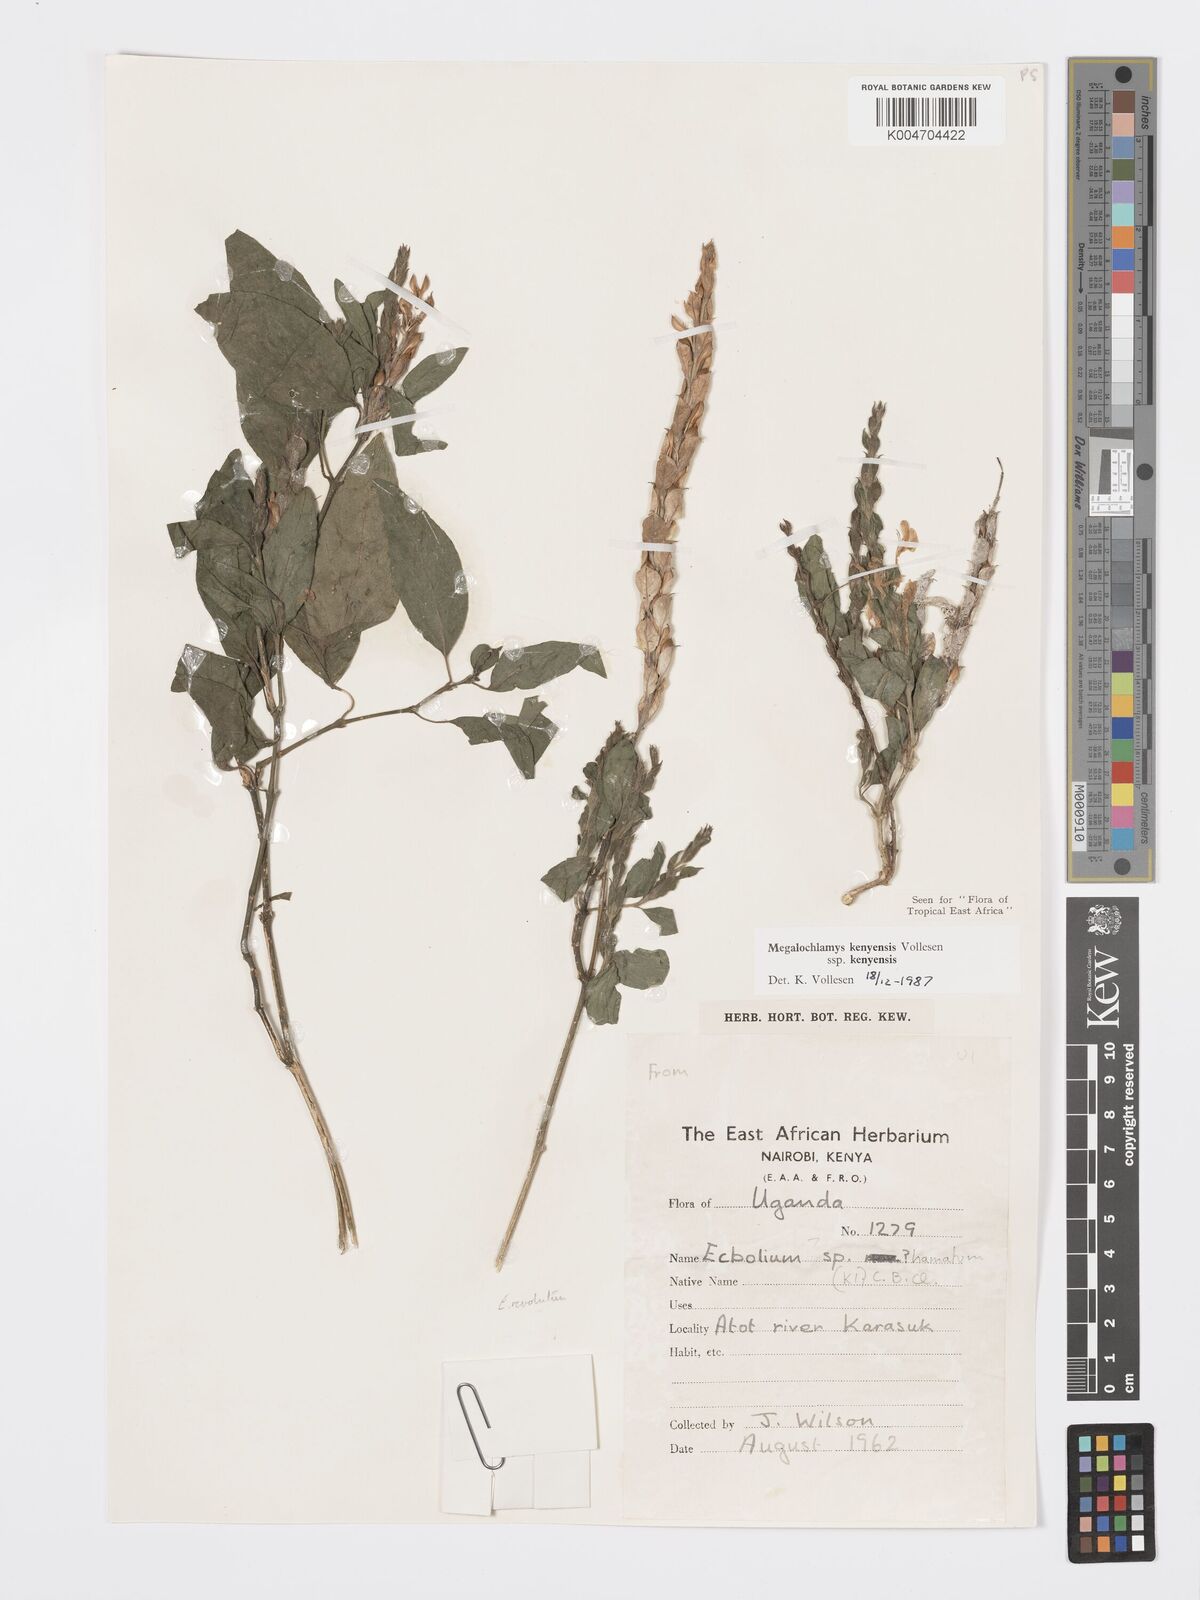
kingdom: Plantae
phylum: Tracheophyta
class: Magnoliopsida
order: Lamiales
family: Acanthaceae
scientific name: Acanthaceae
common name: Acanthaceae
